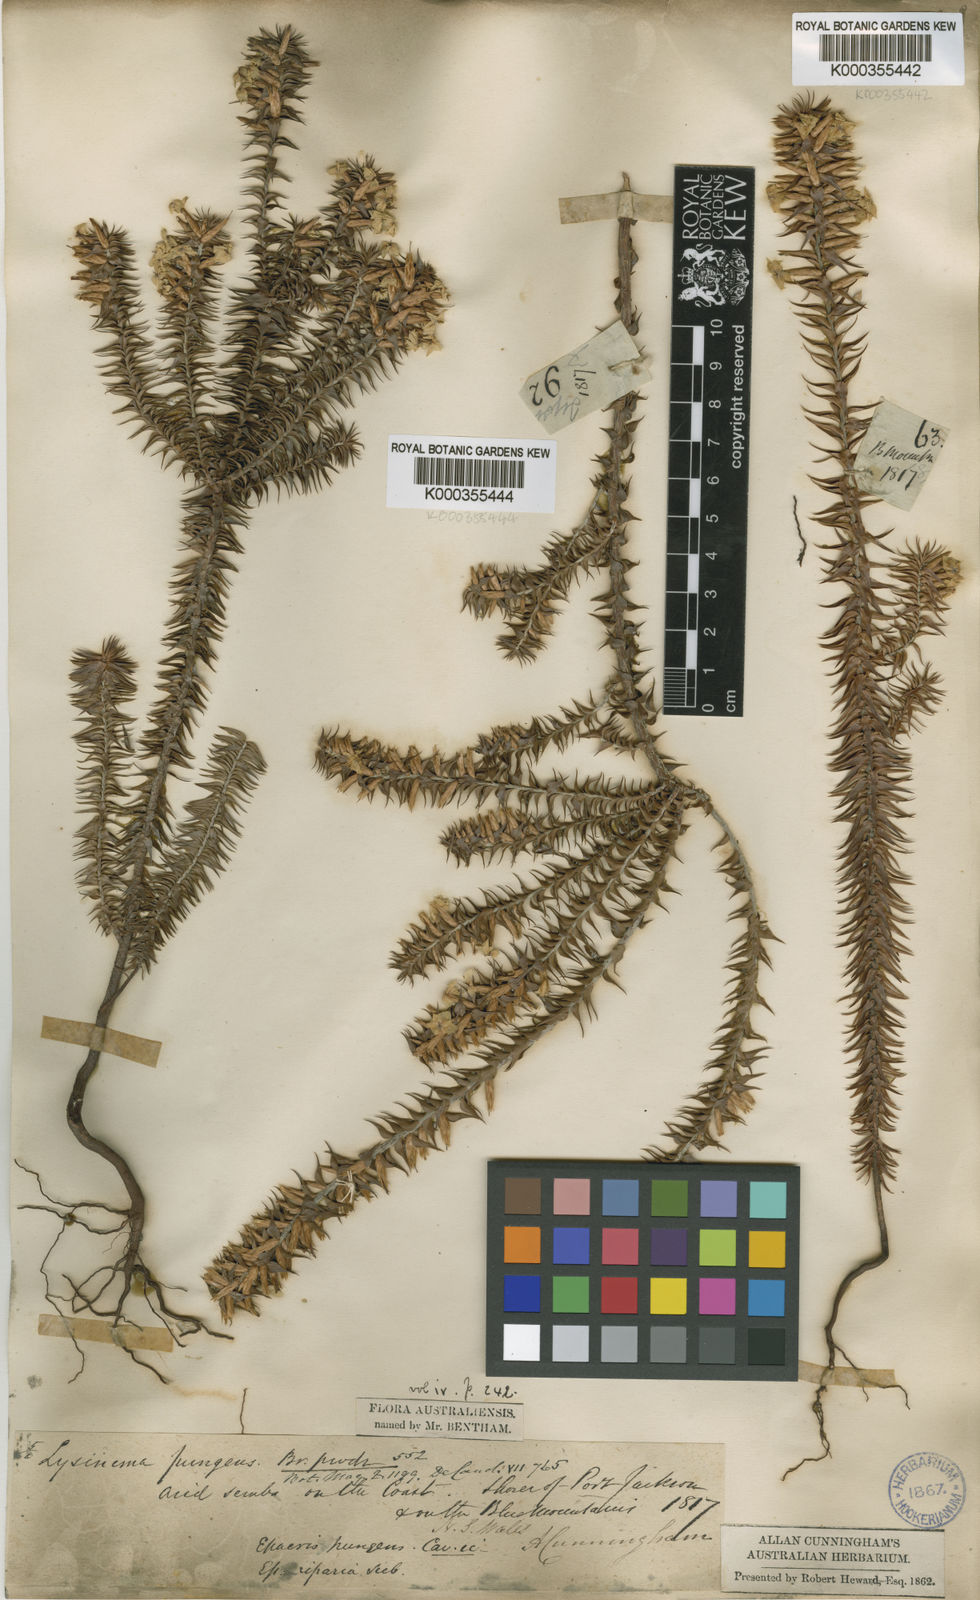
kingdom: Plantae
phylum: Tracheophyta
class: Magnoliopsida
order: Ericales
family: Ericaceae
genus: Woollsia
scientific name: Woollsia pungens
